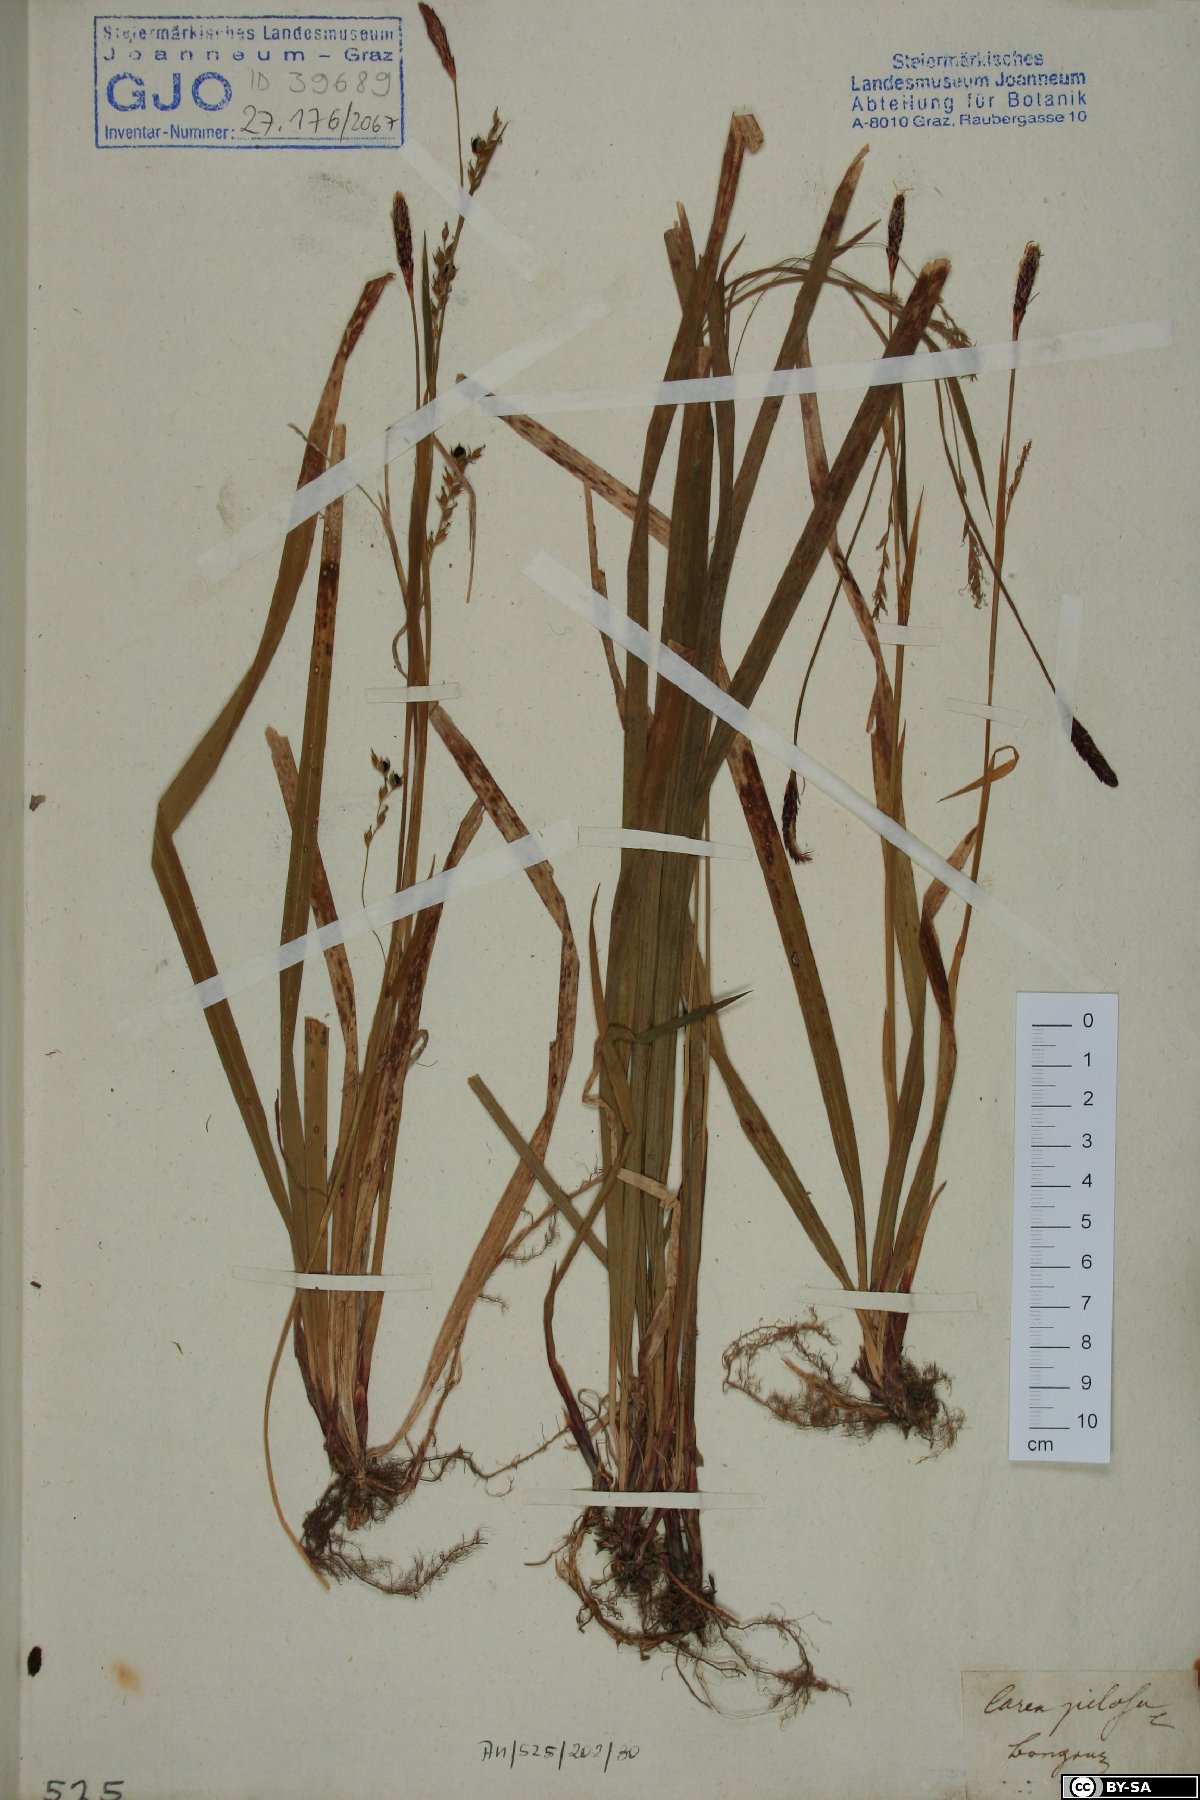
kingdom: Plantae
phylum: Tracheophyta
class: Liliopsida
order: Poales
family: Cyperaceae
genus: Carex
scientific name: Carex pilosa
